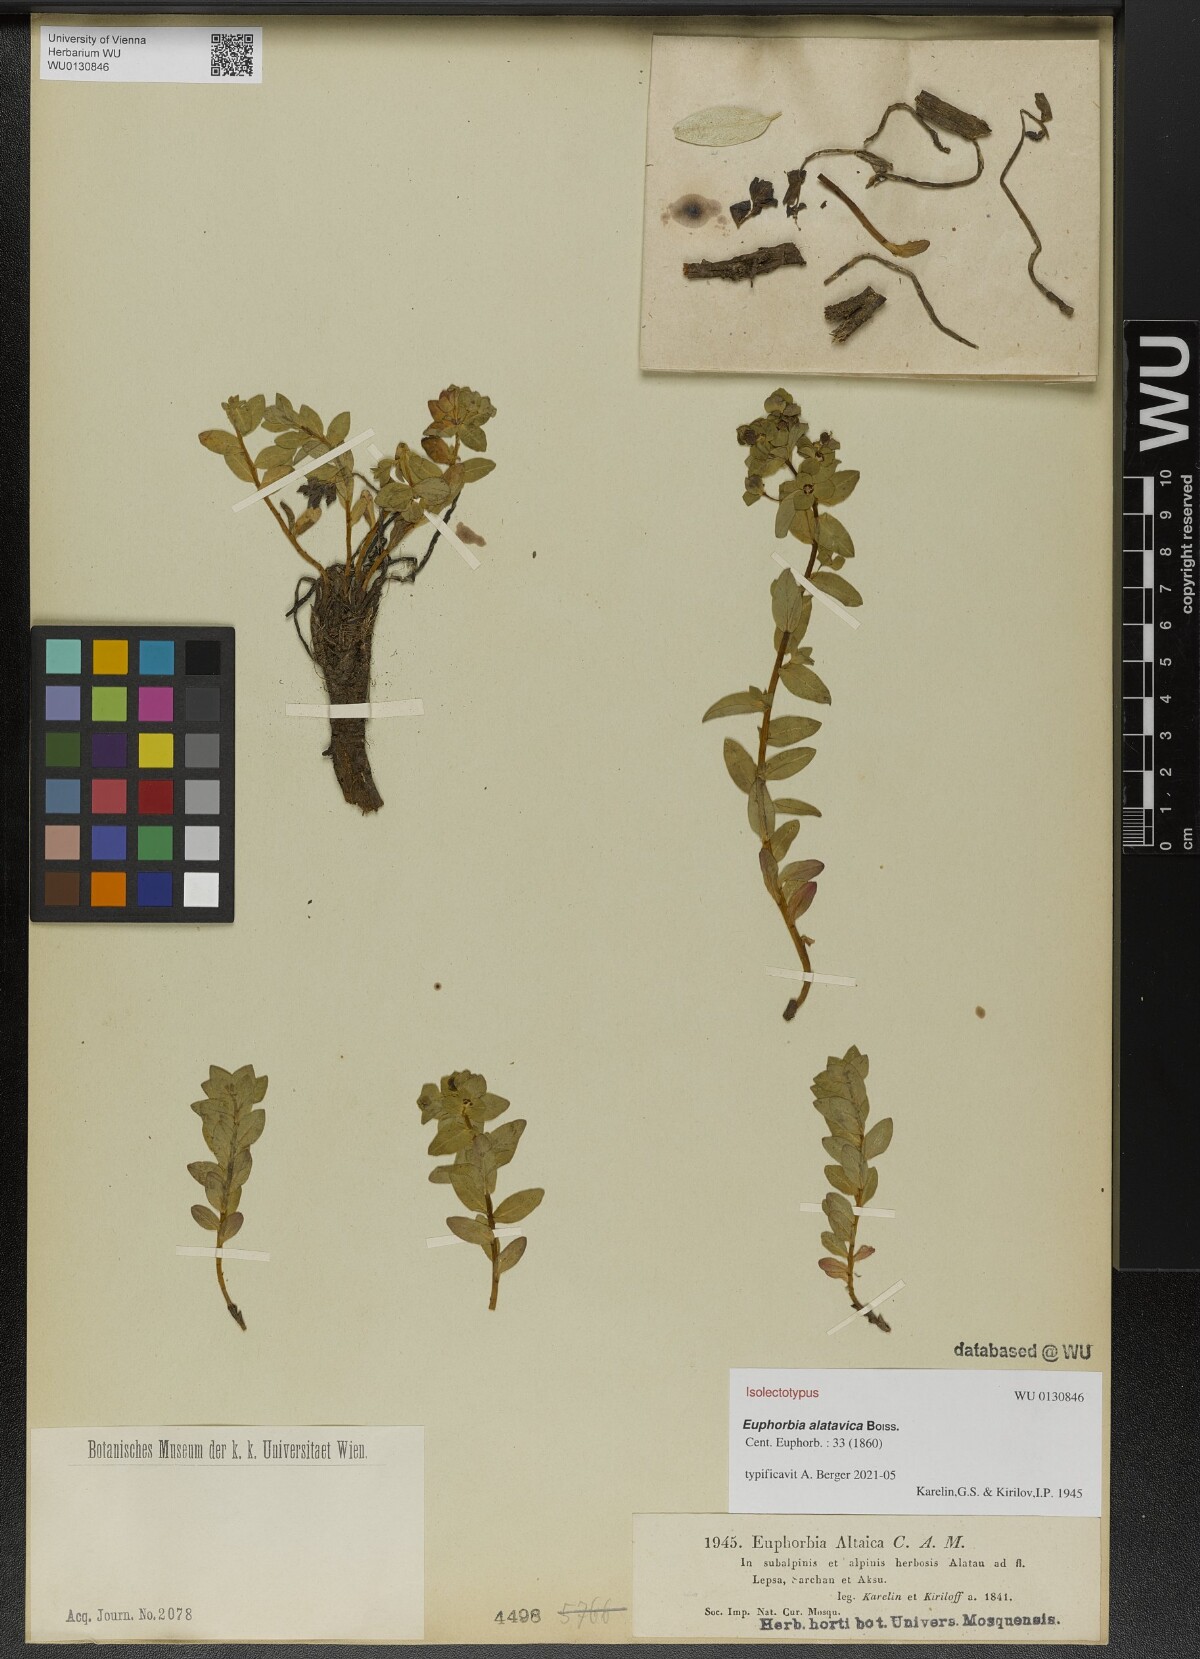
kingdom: Plantae
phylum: Tracheophyta
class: Magnoliopsida
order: Malpighiales
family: Euphorbiaceae
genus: Euphorbia
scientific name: Euphorbia alatavica
